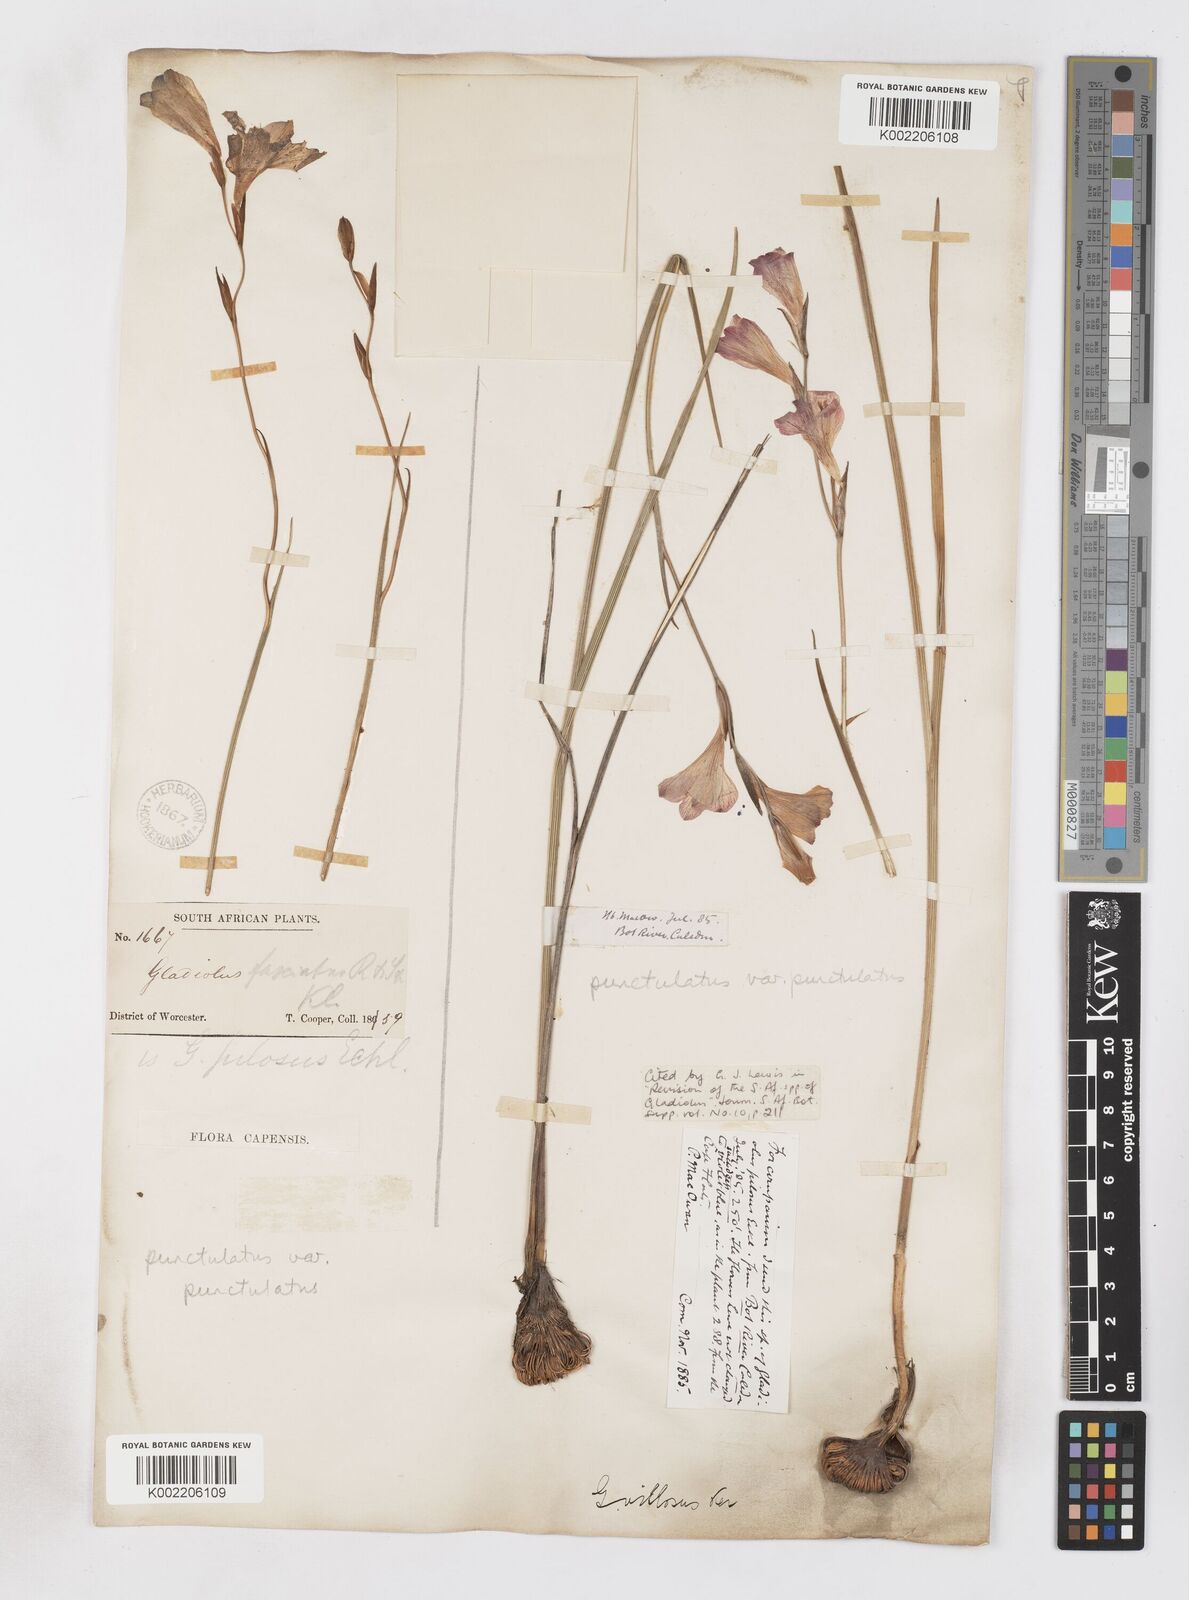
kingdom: Plantae
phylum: Tracheophyta
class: Liliopsida
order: Asparagales
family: Iridaceae
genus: Gladiolus
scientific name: Gladiolus hirsutus
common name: Small pink afrikaner
